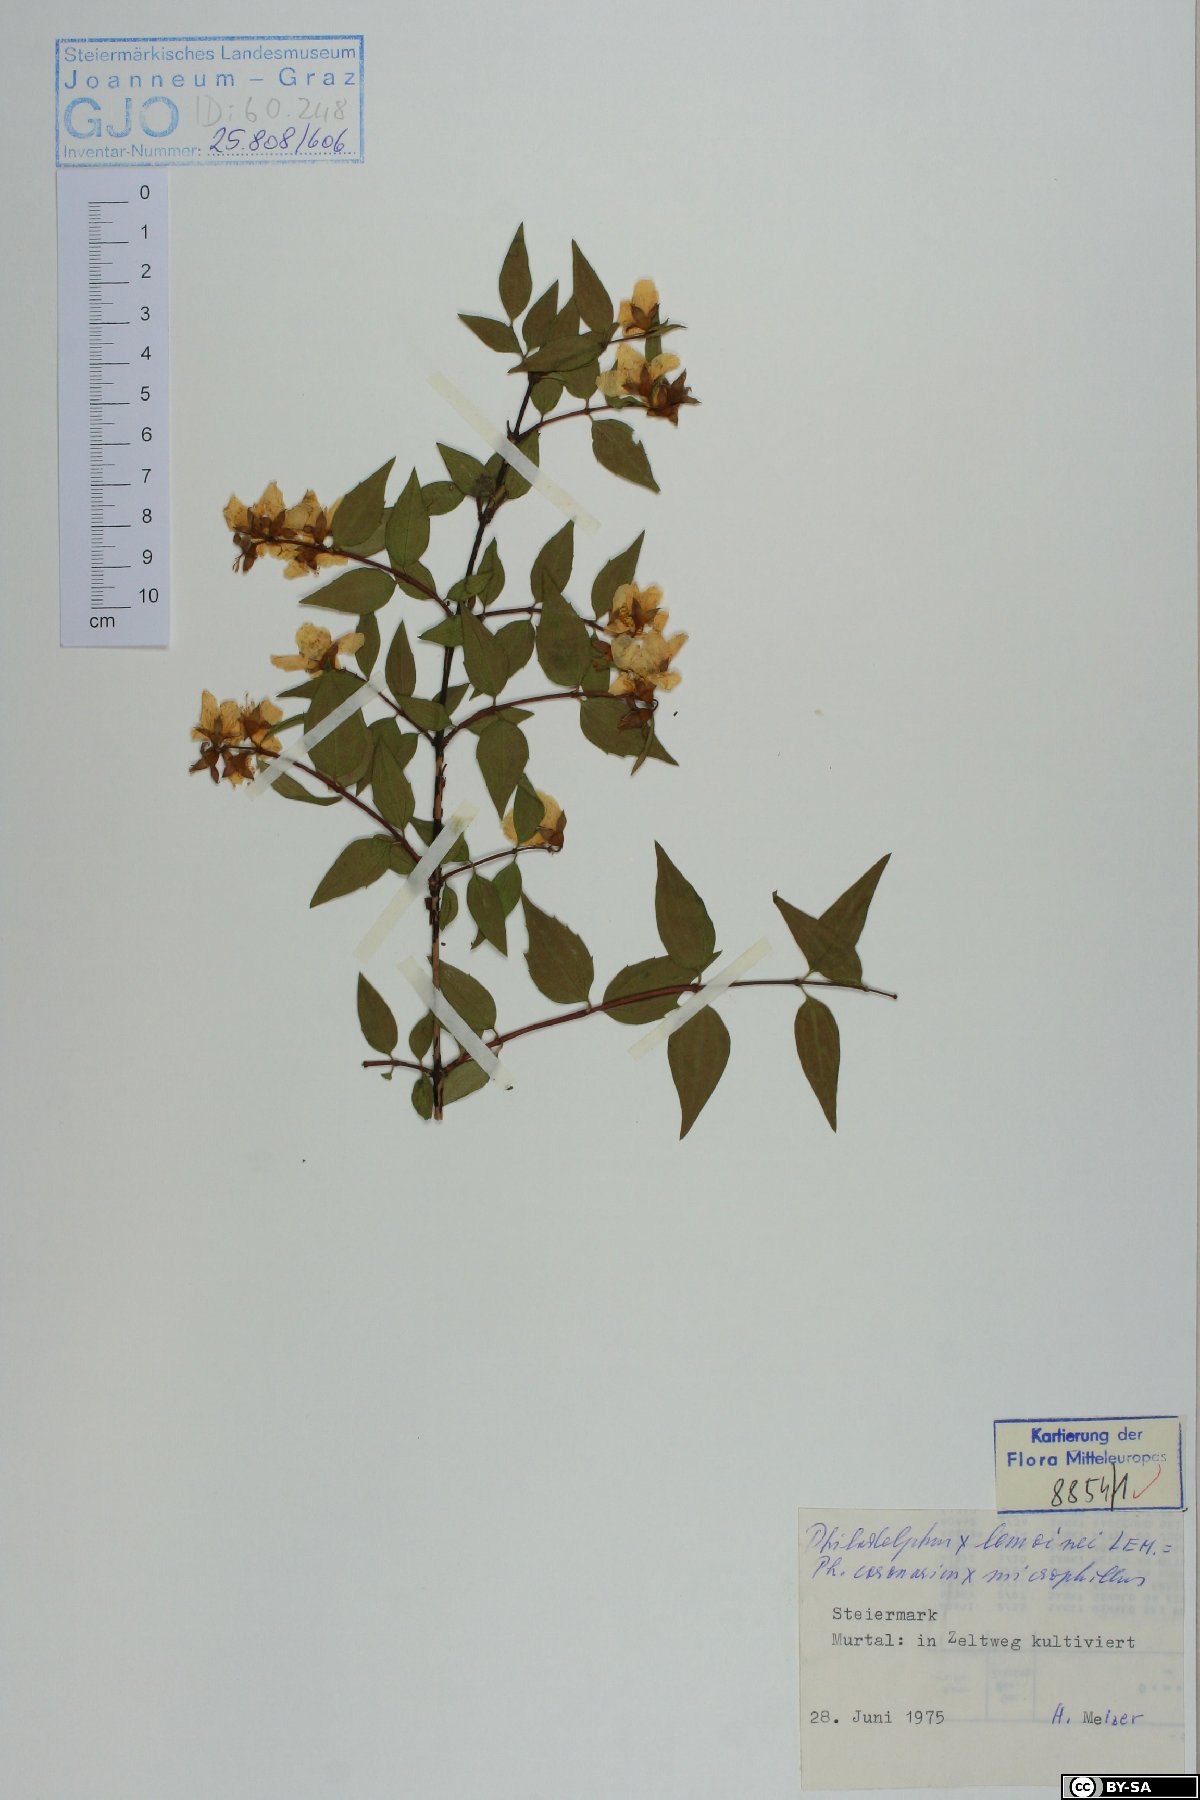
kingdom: Plantae
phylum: Tracheophyta
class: Magnoliopsida
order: Cornales
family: Hydrangeaceae
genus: Philadelphus
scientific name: Philadelphus lemoinei
